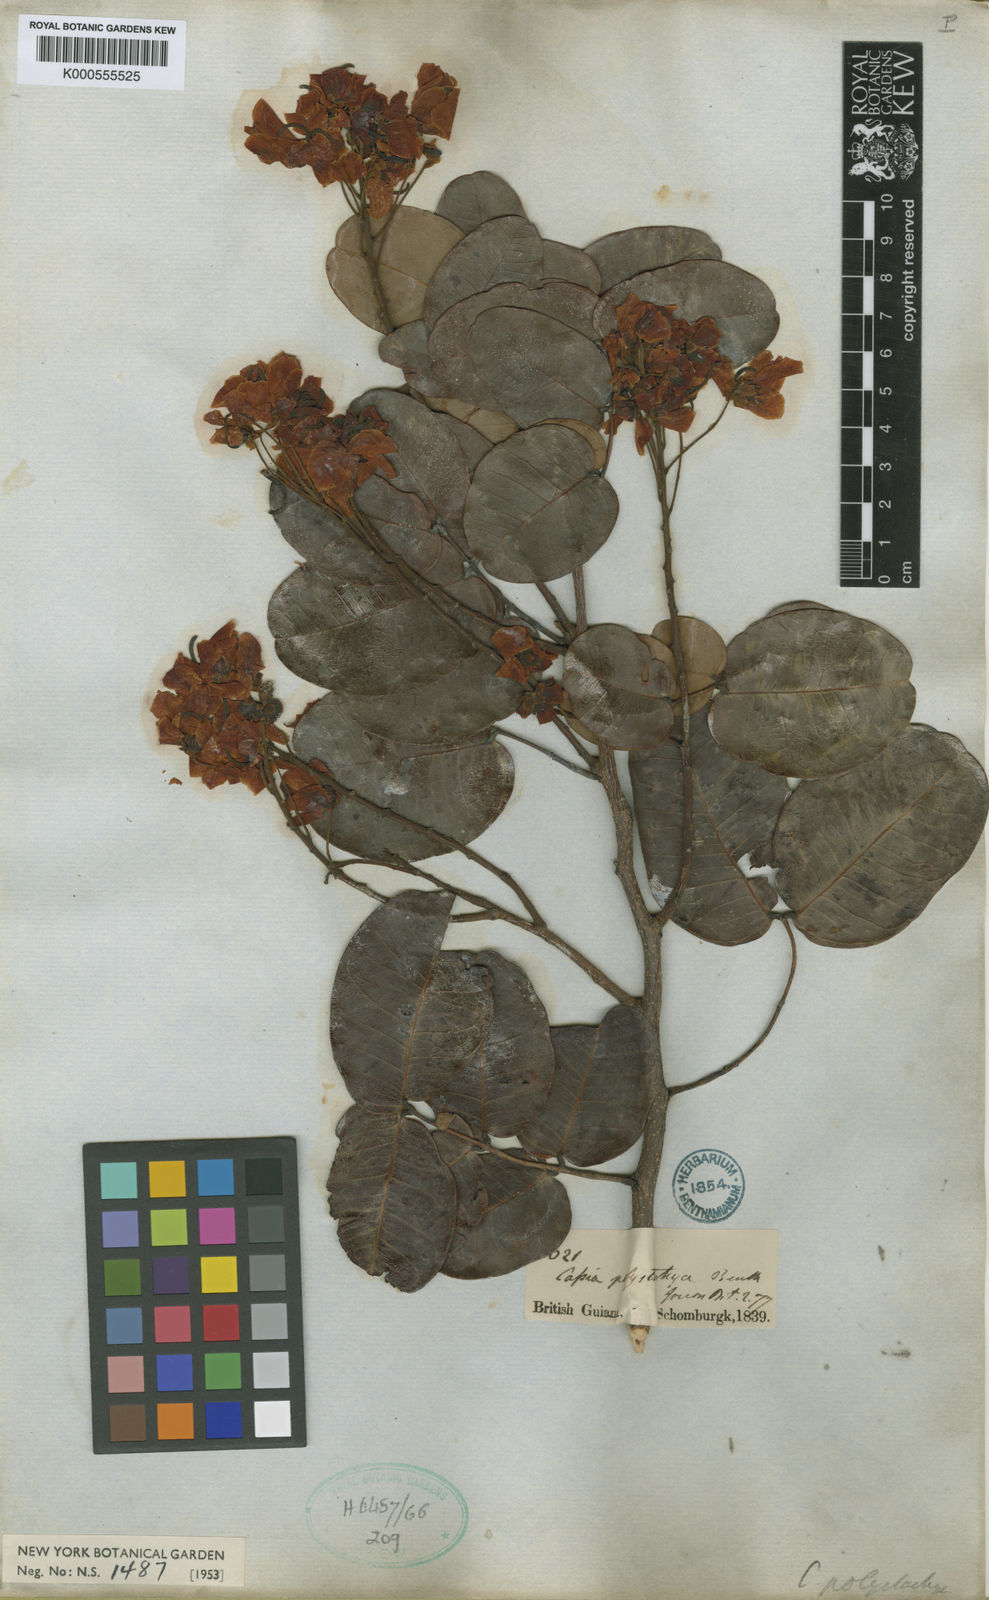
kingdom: Plantae
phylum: Tracheophyta
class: Magnoliopsida
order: Fabales
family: Fabaceae
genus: Chamaecrista
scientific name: Chamaecrista polystachya
